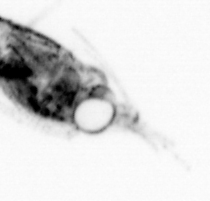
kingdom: Animalia
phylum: Arthropoda
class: Malacostraca
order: Decapoda
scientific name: Decapoda
